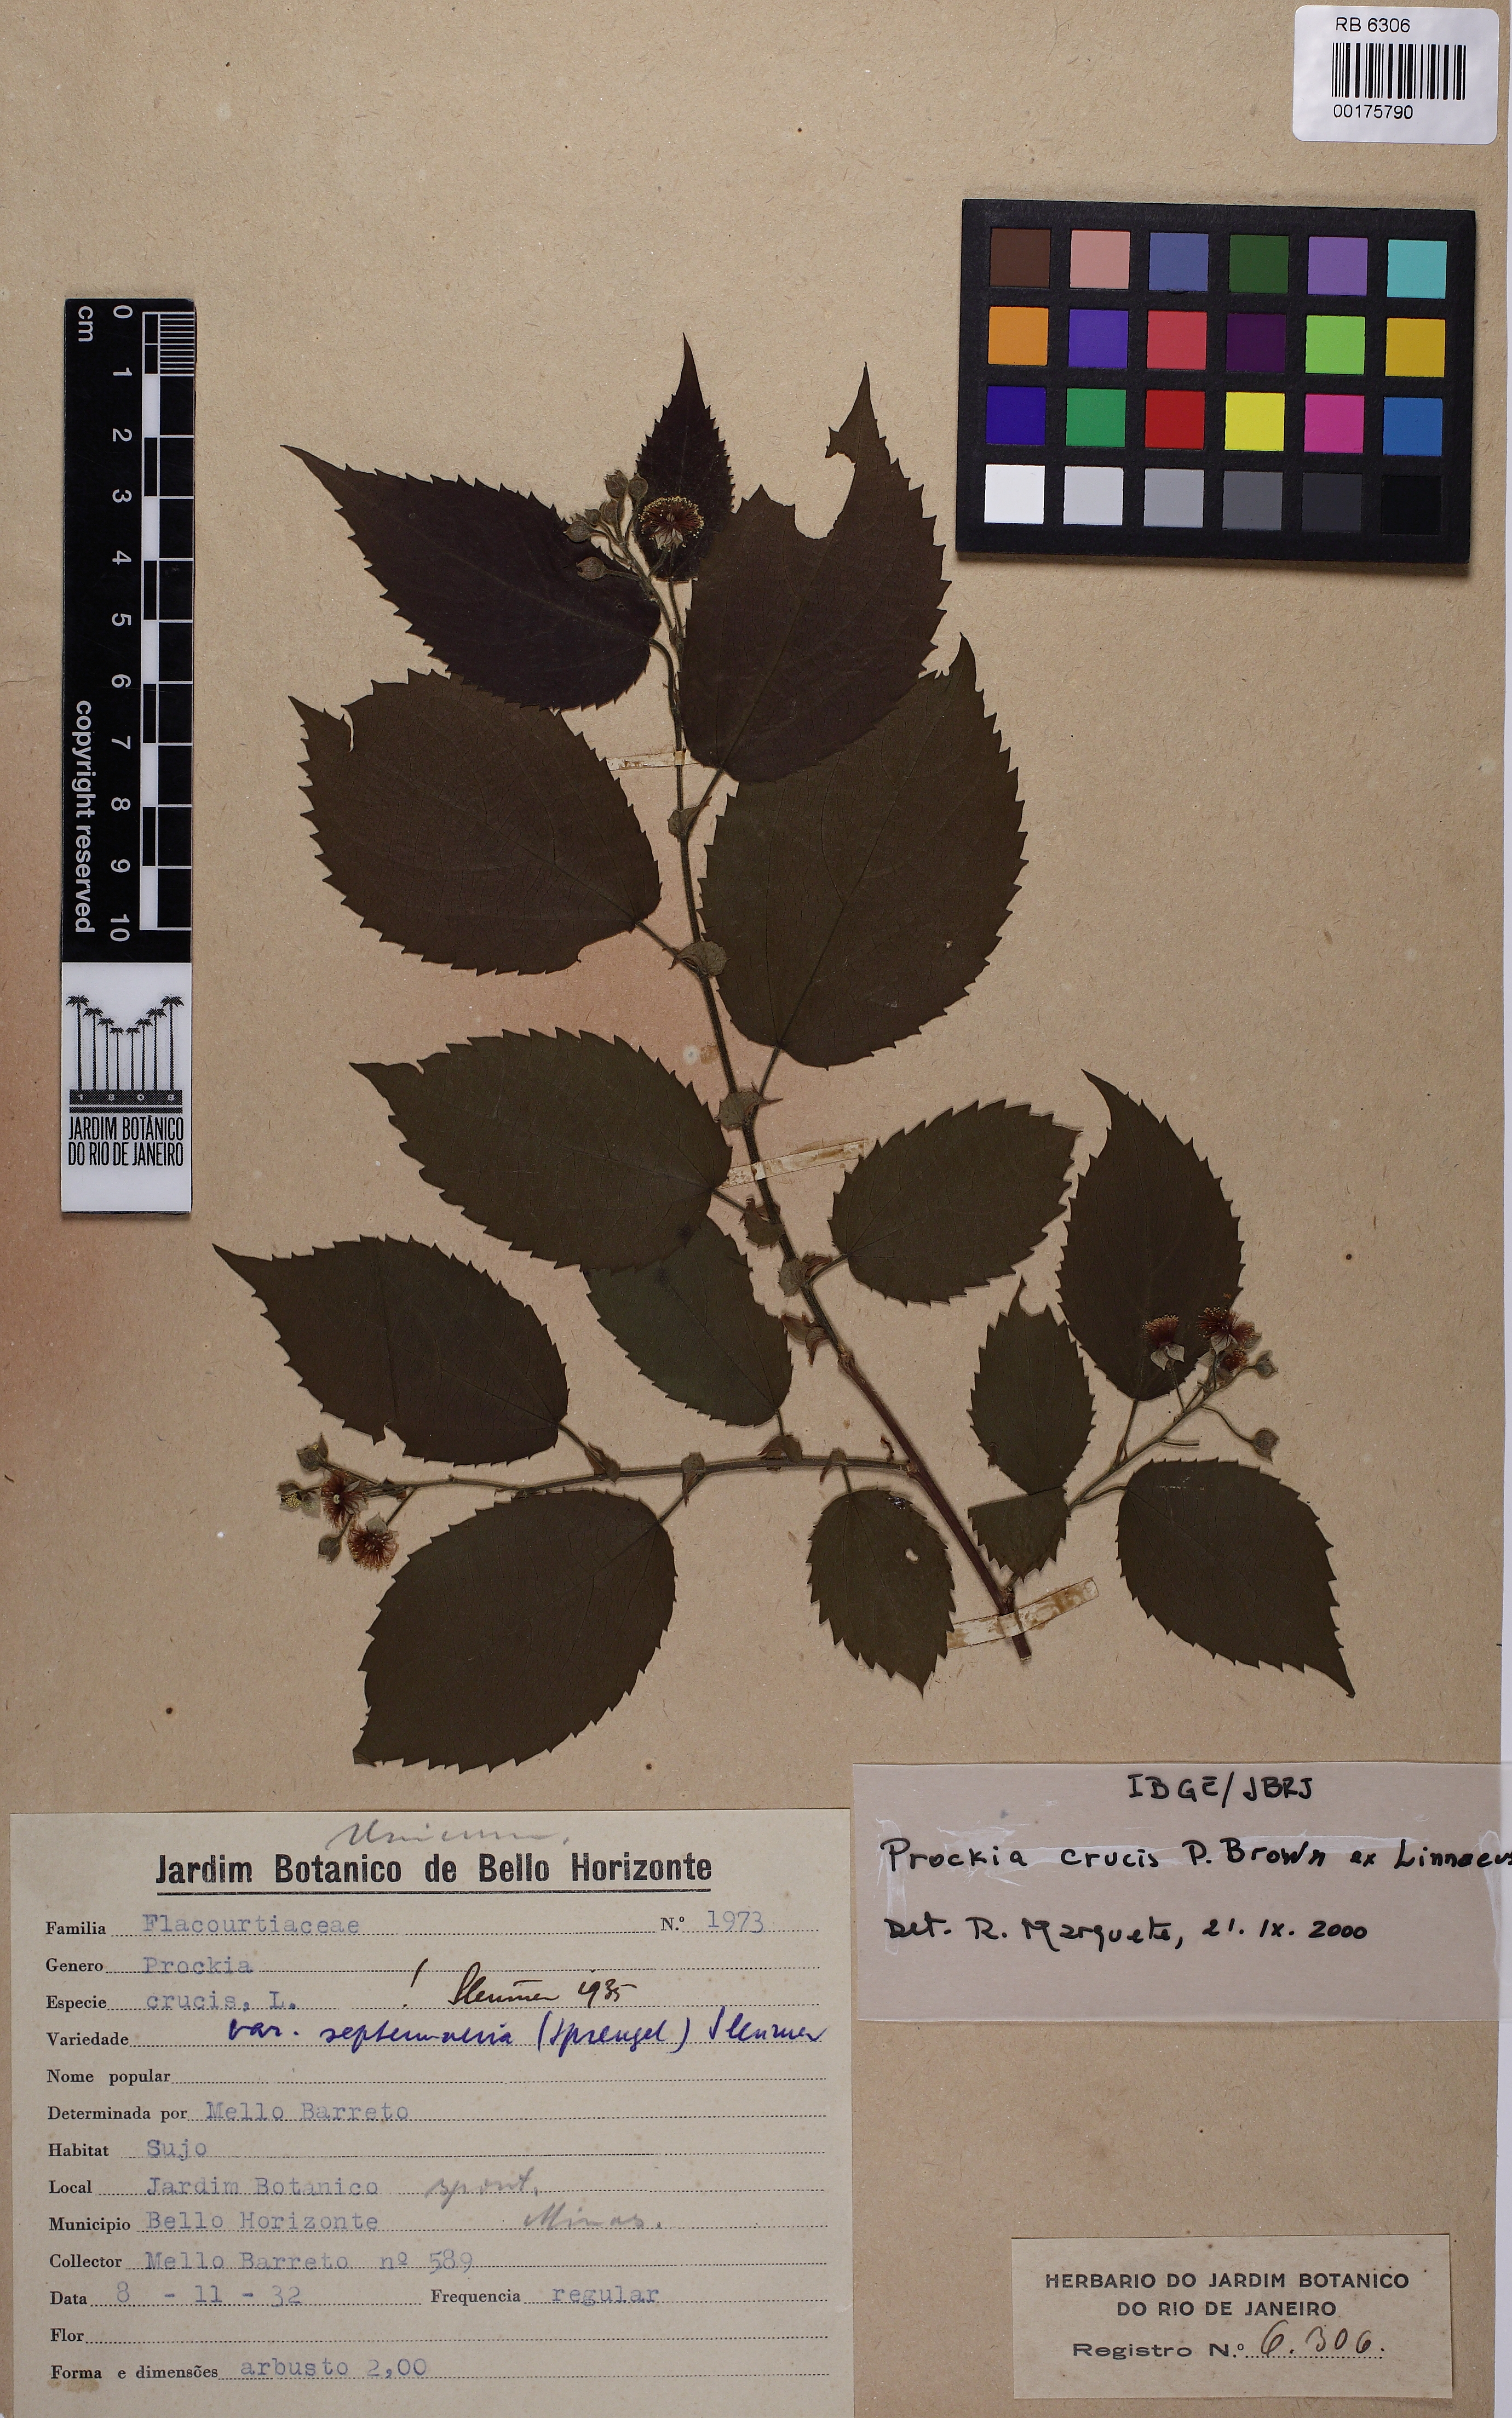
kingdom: Plantae
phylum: Tracheophyta
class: Magnoliopsida
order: Malpighiales
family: Salicaceae
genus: Prockia
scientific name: Prockia crucis
